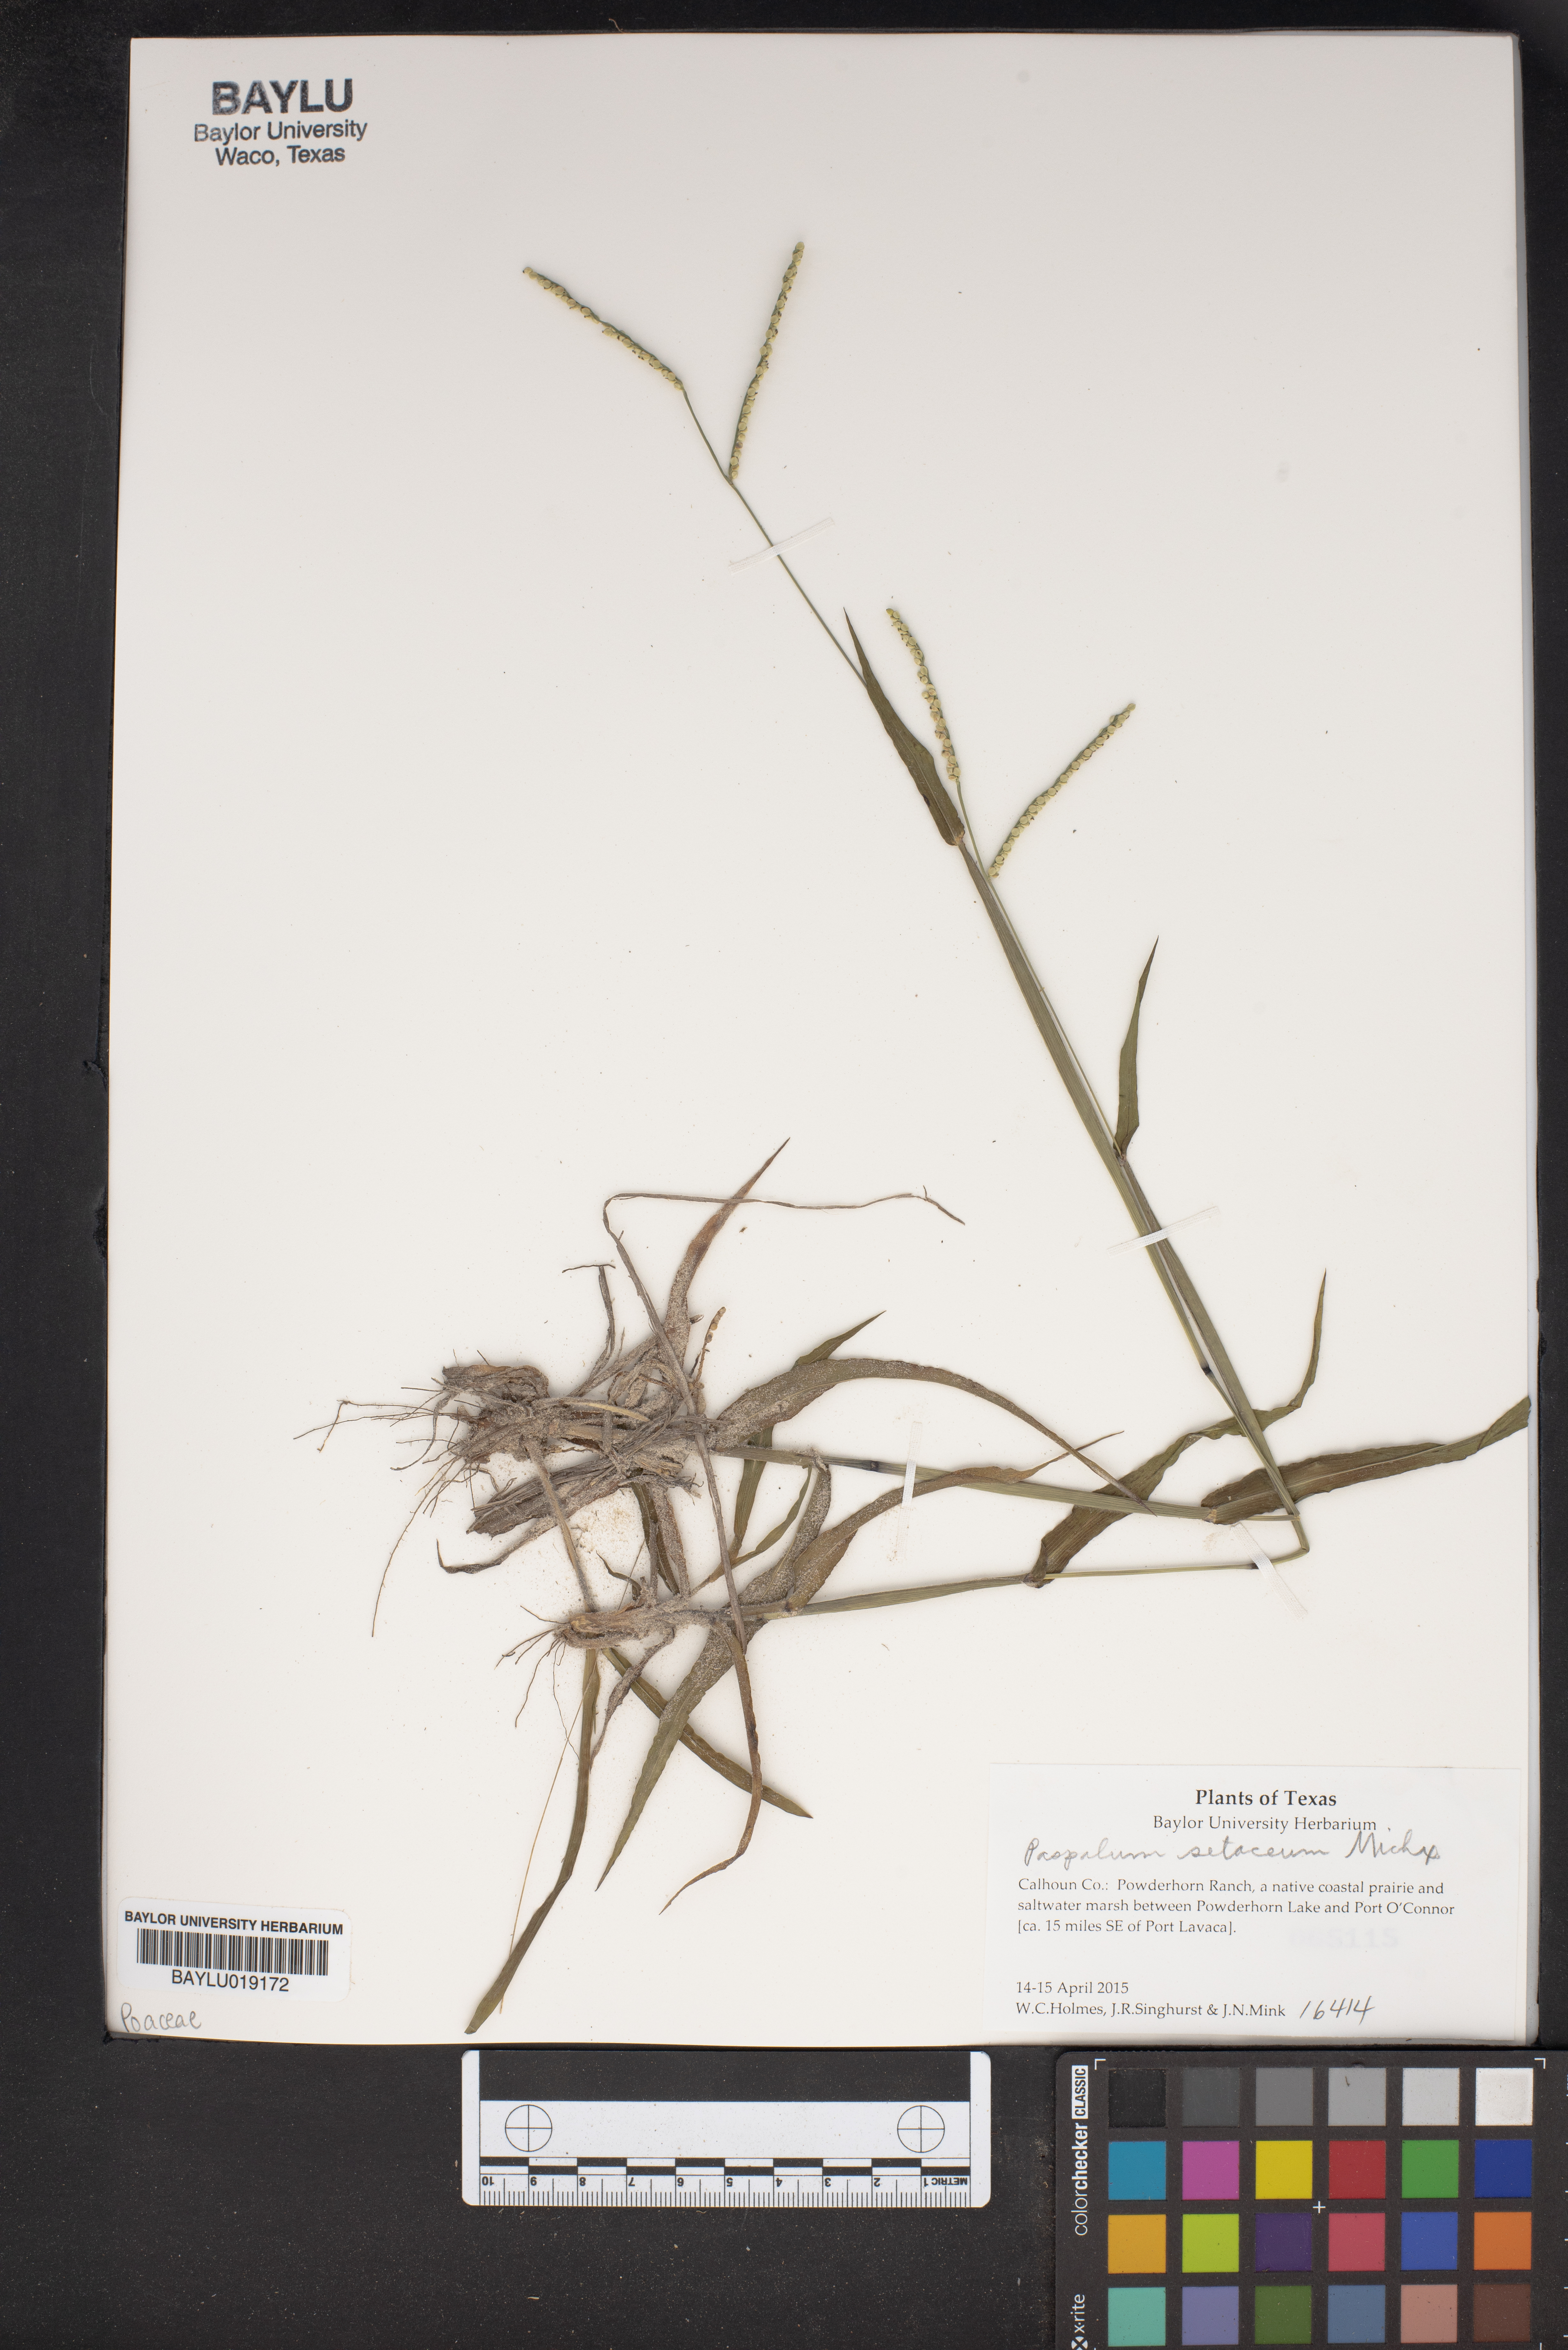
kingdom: Plantae
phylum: Tracheophyta
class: Liliopsida
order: Poales
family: Poaceae
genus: Paspalum
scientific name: Paspalum setaceum
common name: Slender paspalum
